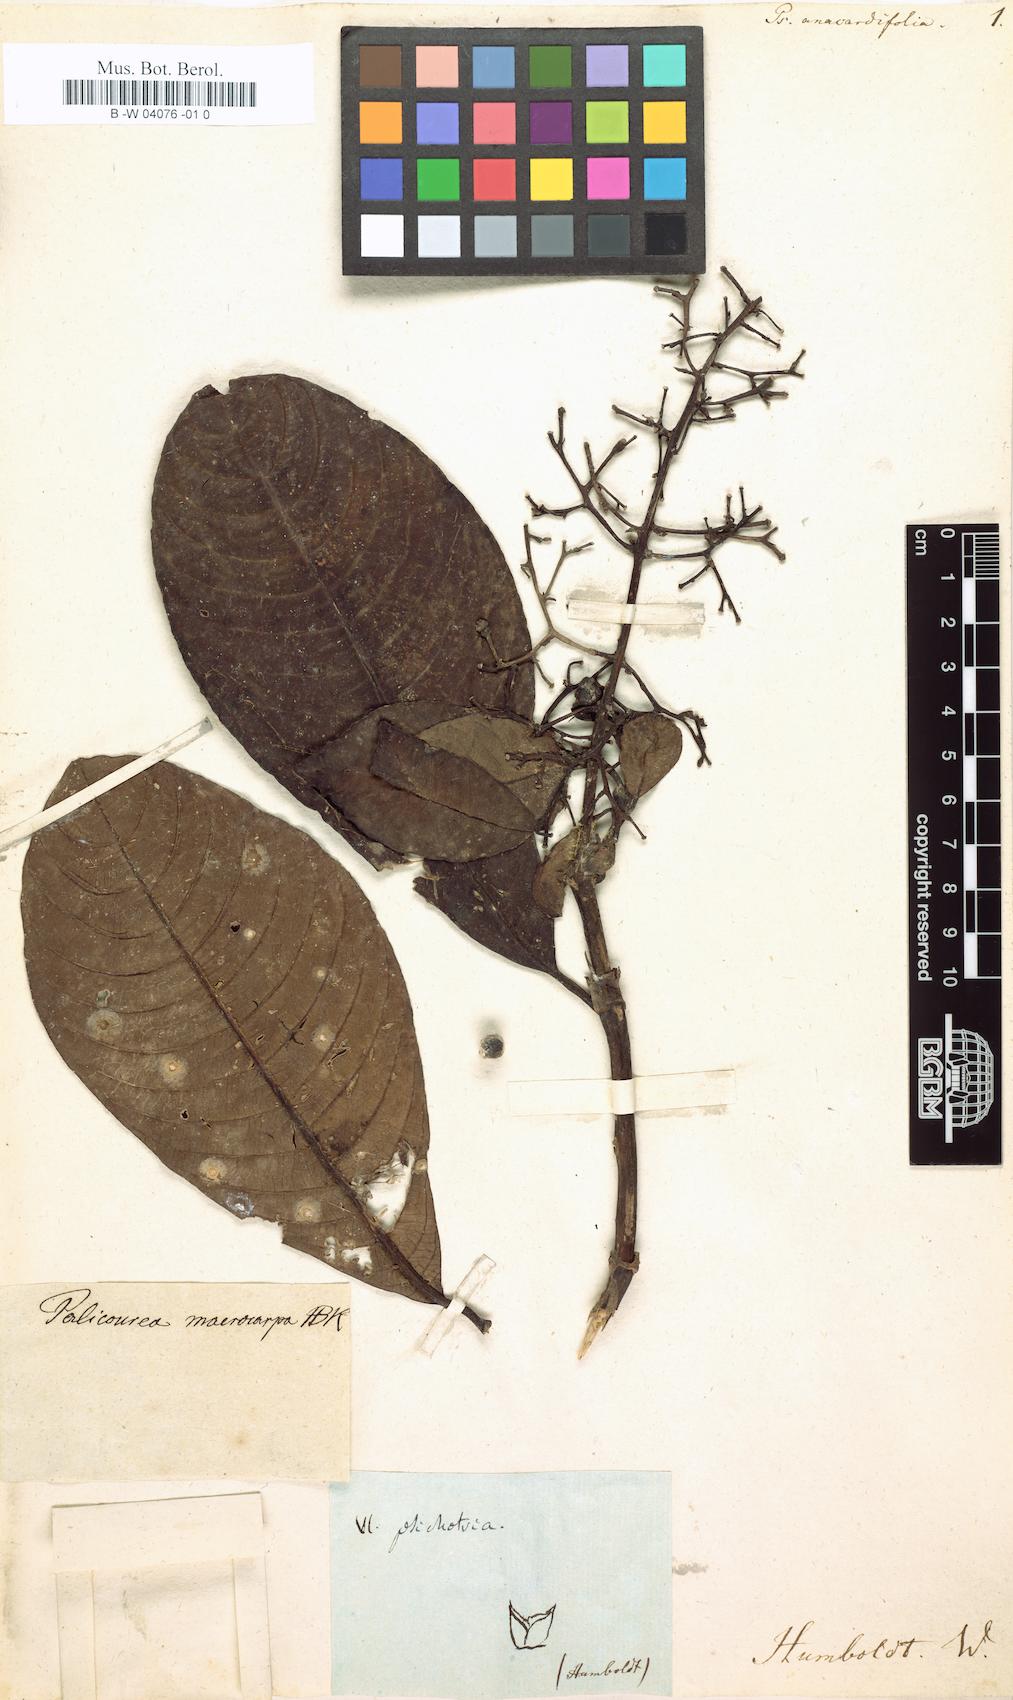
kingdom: Plantae
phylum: Tracheophyta
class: Magnoliopsida
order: Gentianales
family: Rubiaceae
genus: Palicourea
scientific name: Palicourea anacardiifolia
